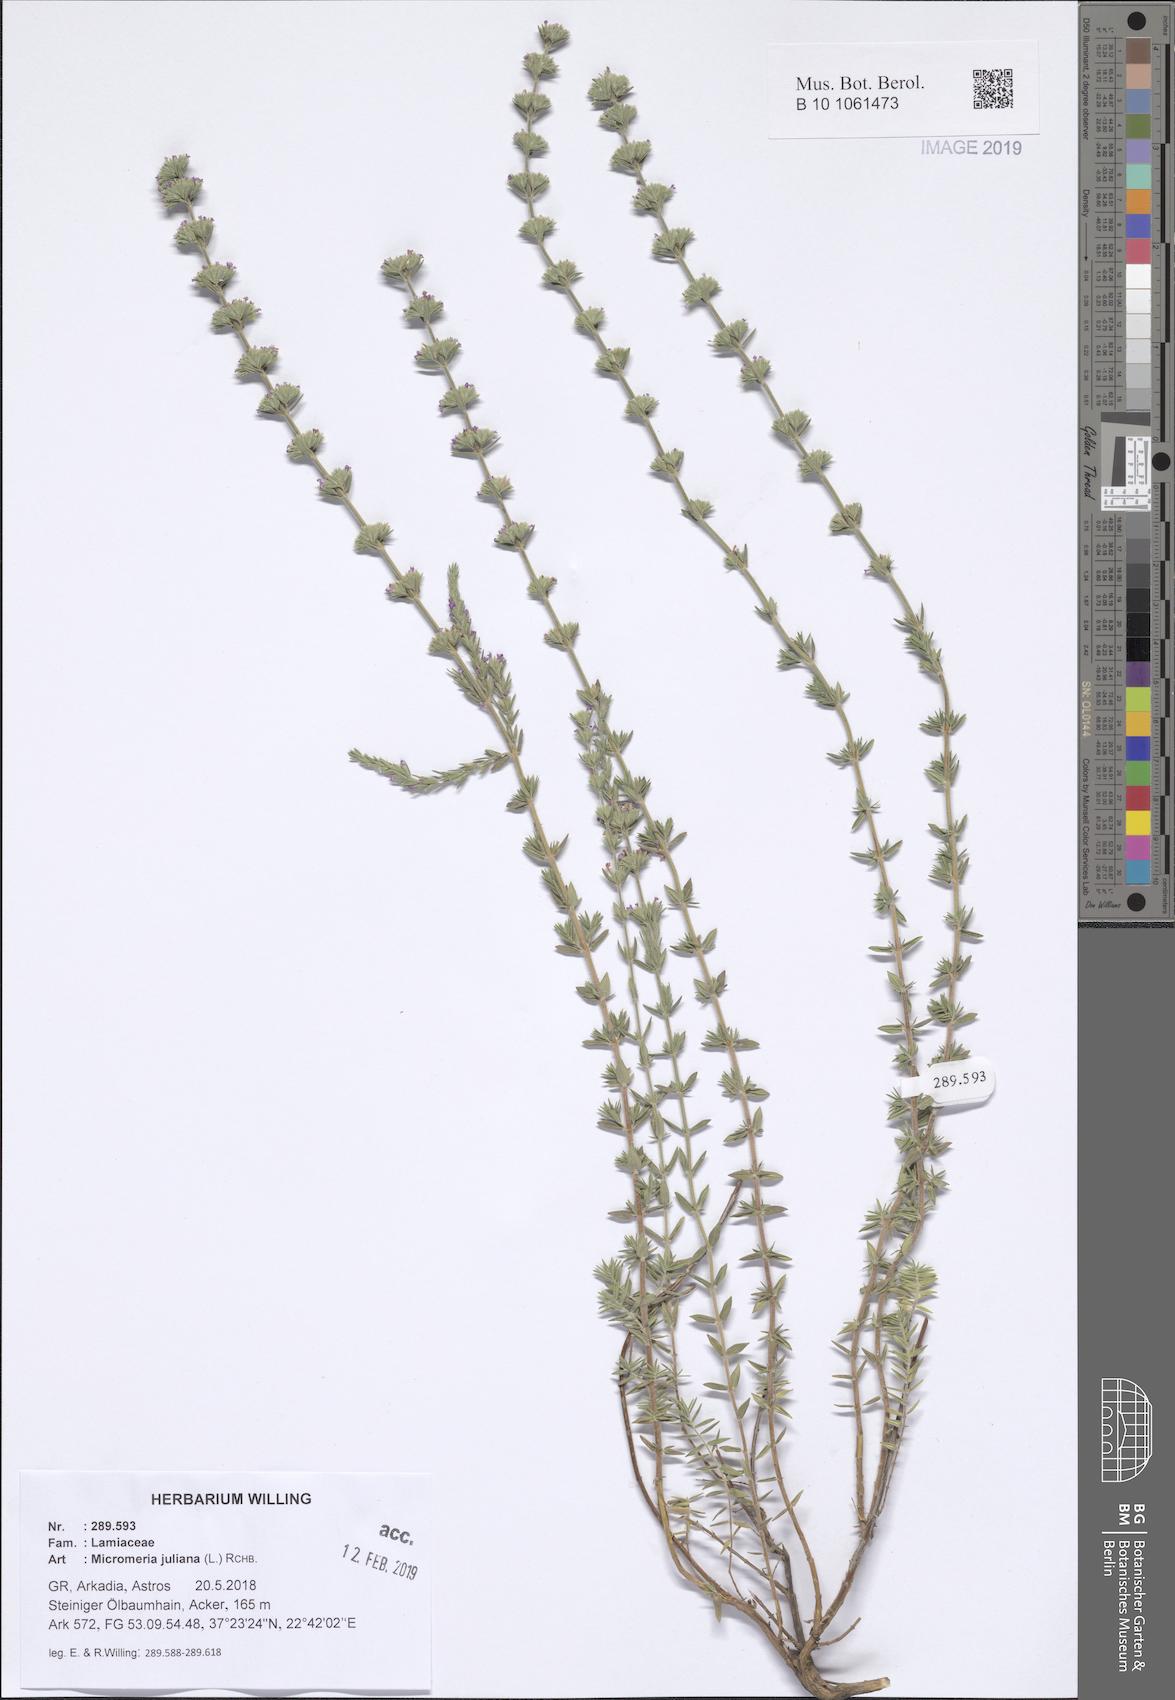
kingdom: Plantae
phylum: Tracheophyta
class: Magnoliopsida
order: Lamiales
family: Lamiaceae
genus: Micromeria
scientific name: Micromeria juliana
